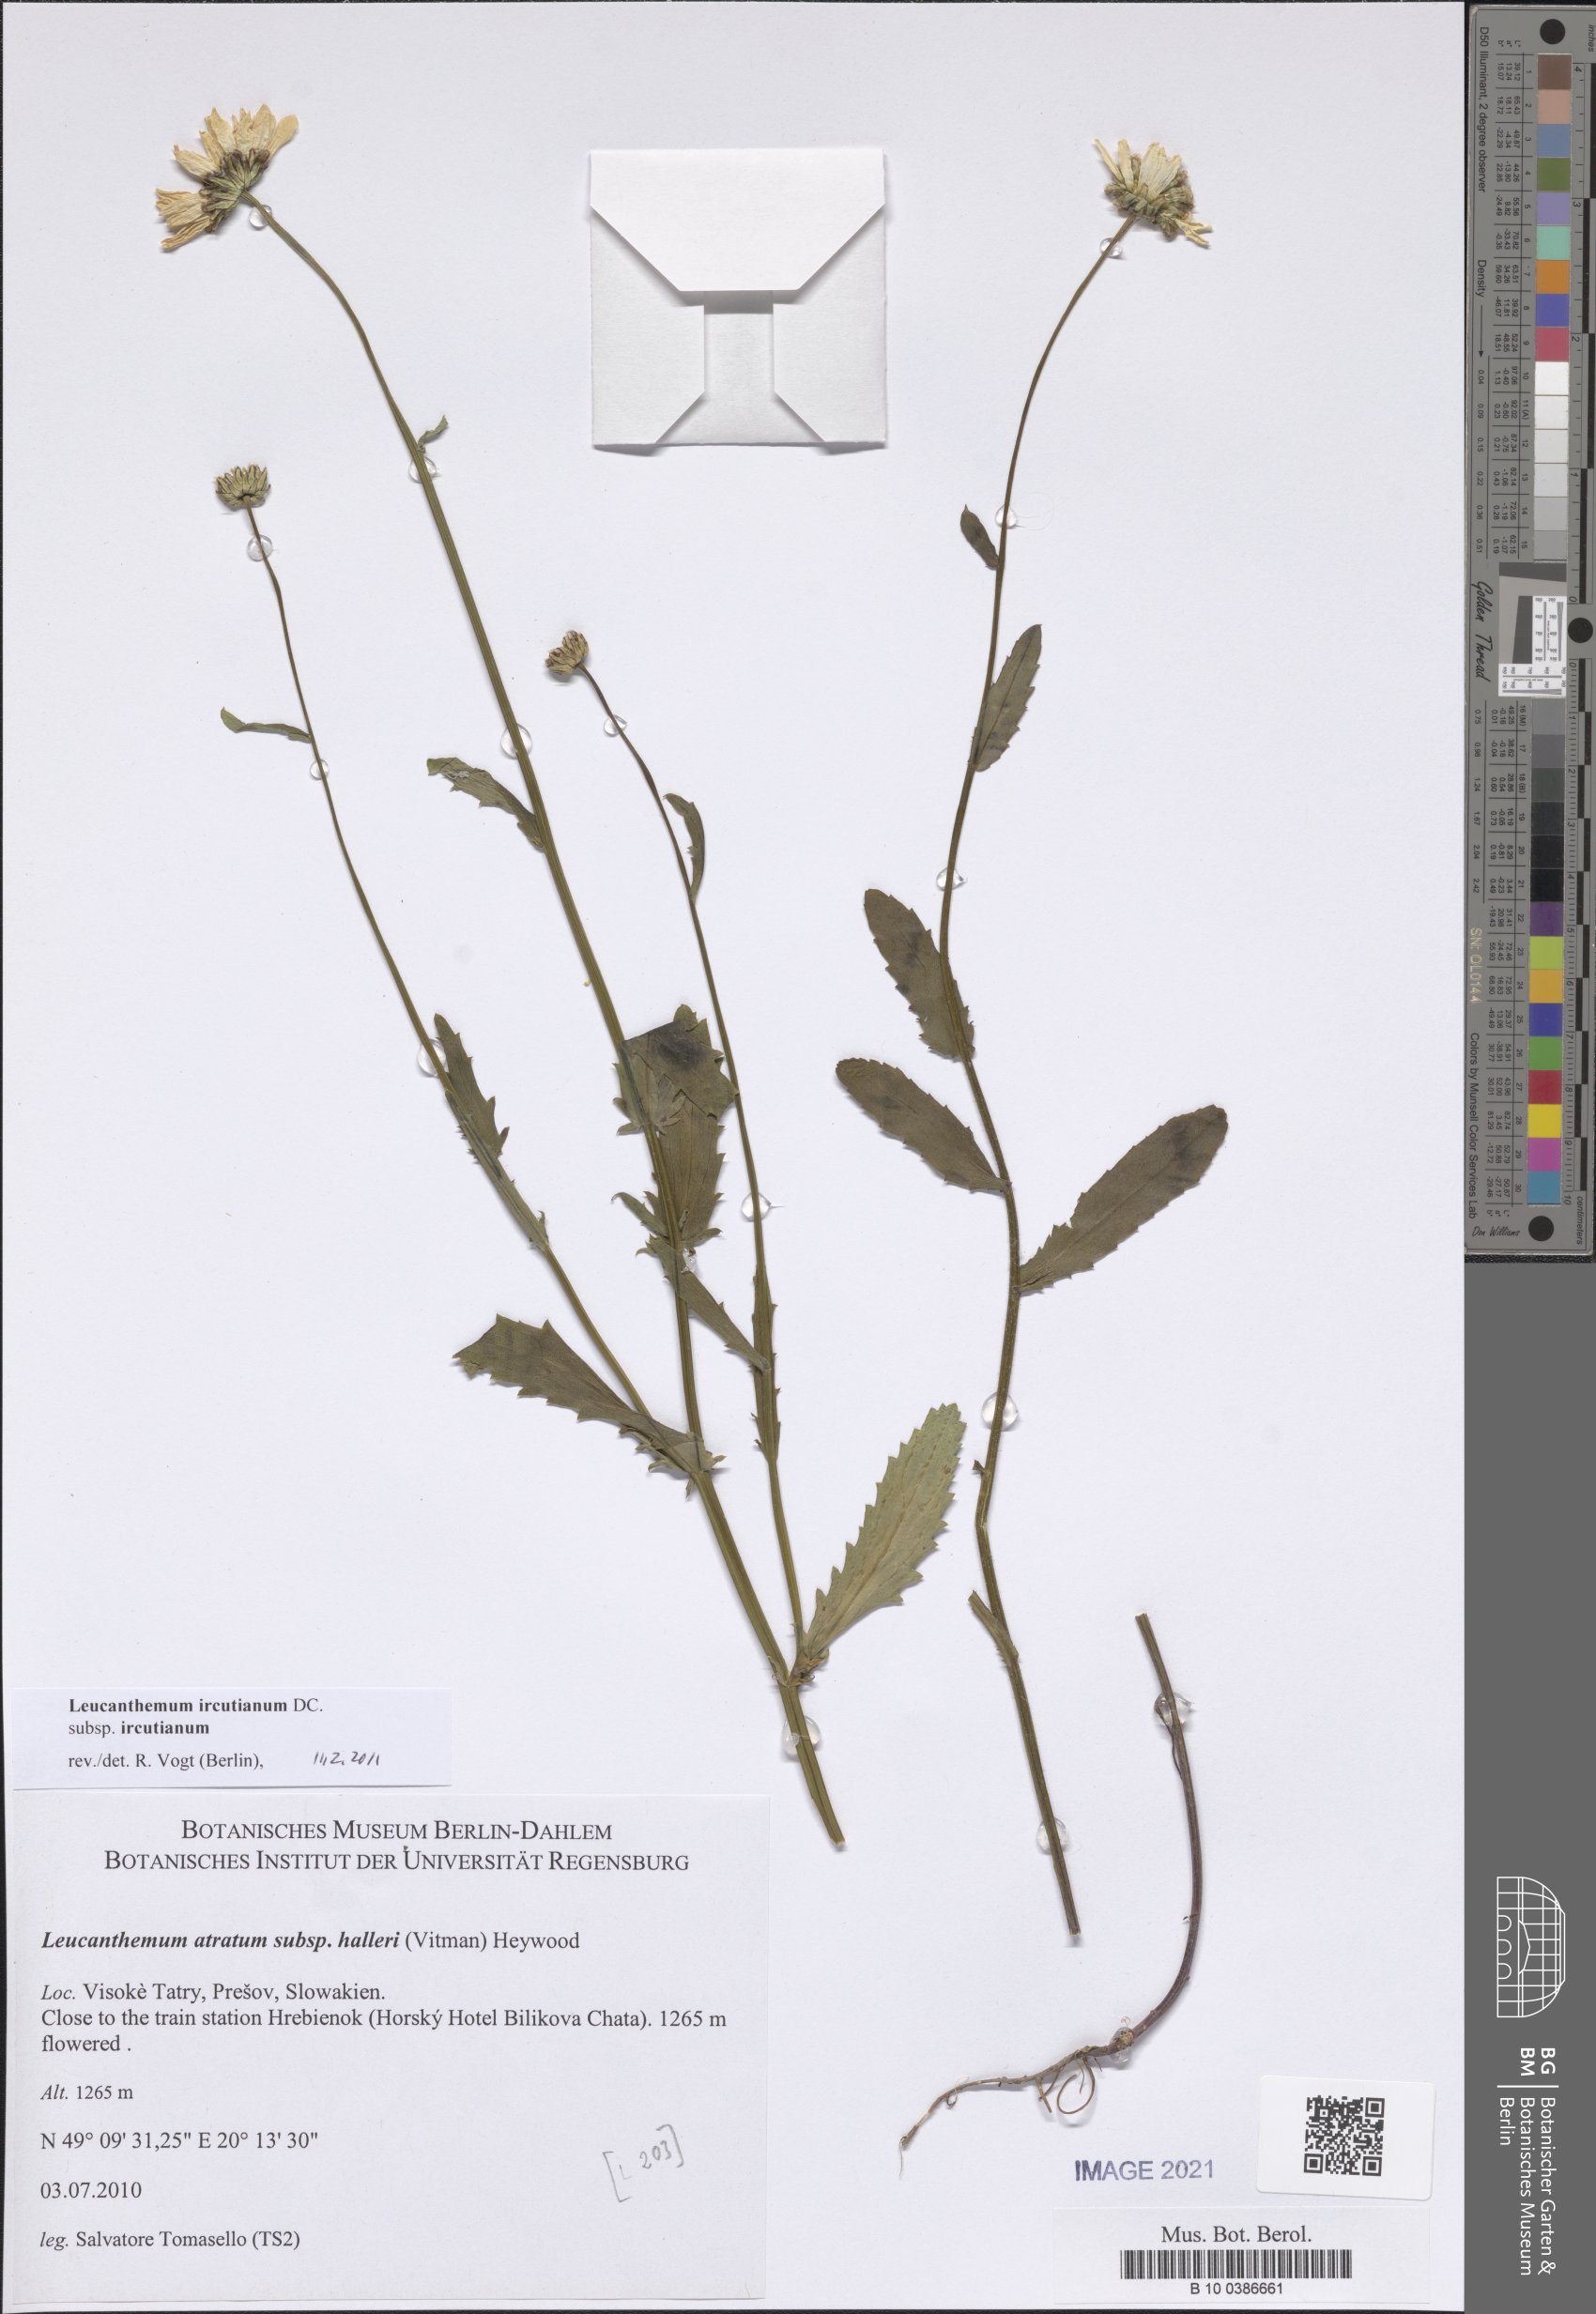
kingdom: Plantae
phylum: Tracheophyta
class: Magnoliopsida
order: Asterales
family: Asteraceae
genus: Leucanthemum
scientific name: Leucanthemum ircutianum
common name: Daisy
